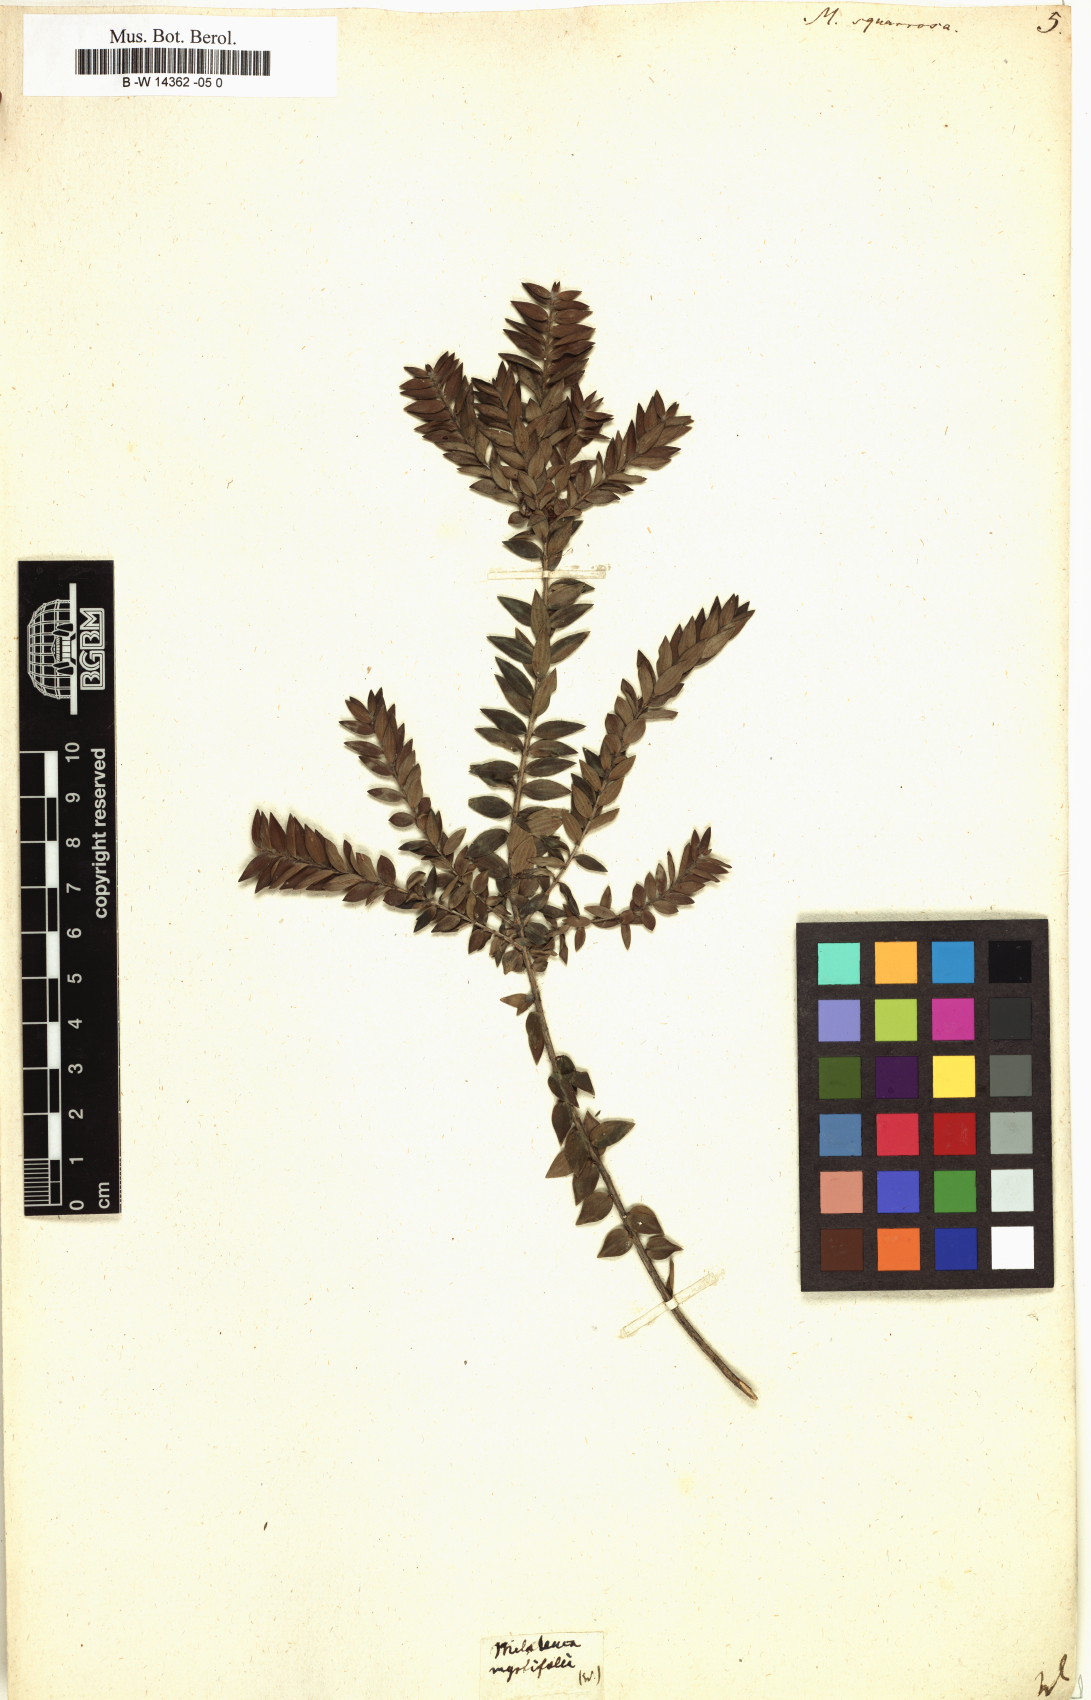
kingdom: Plantae
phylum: Tracheophyta
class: Magnoliopsida
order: Myrtales
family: Myrtaceae
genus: Melaleuca
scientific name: Melaleuca squarrosa
